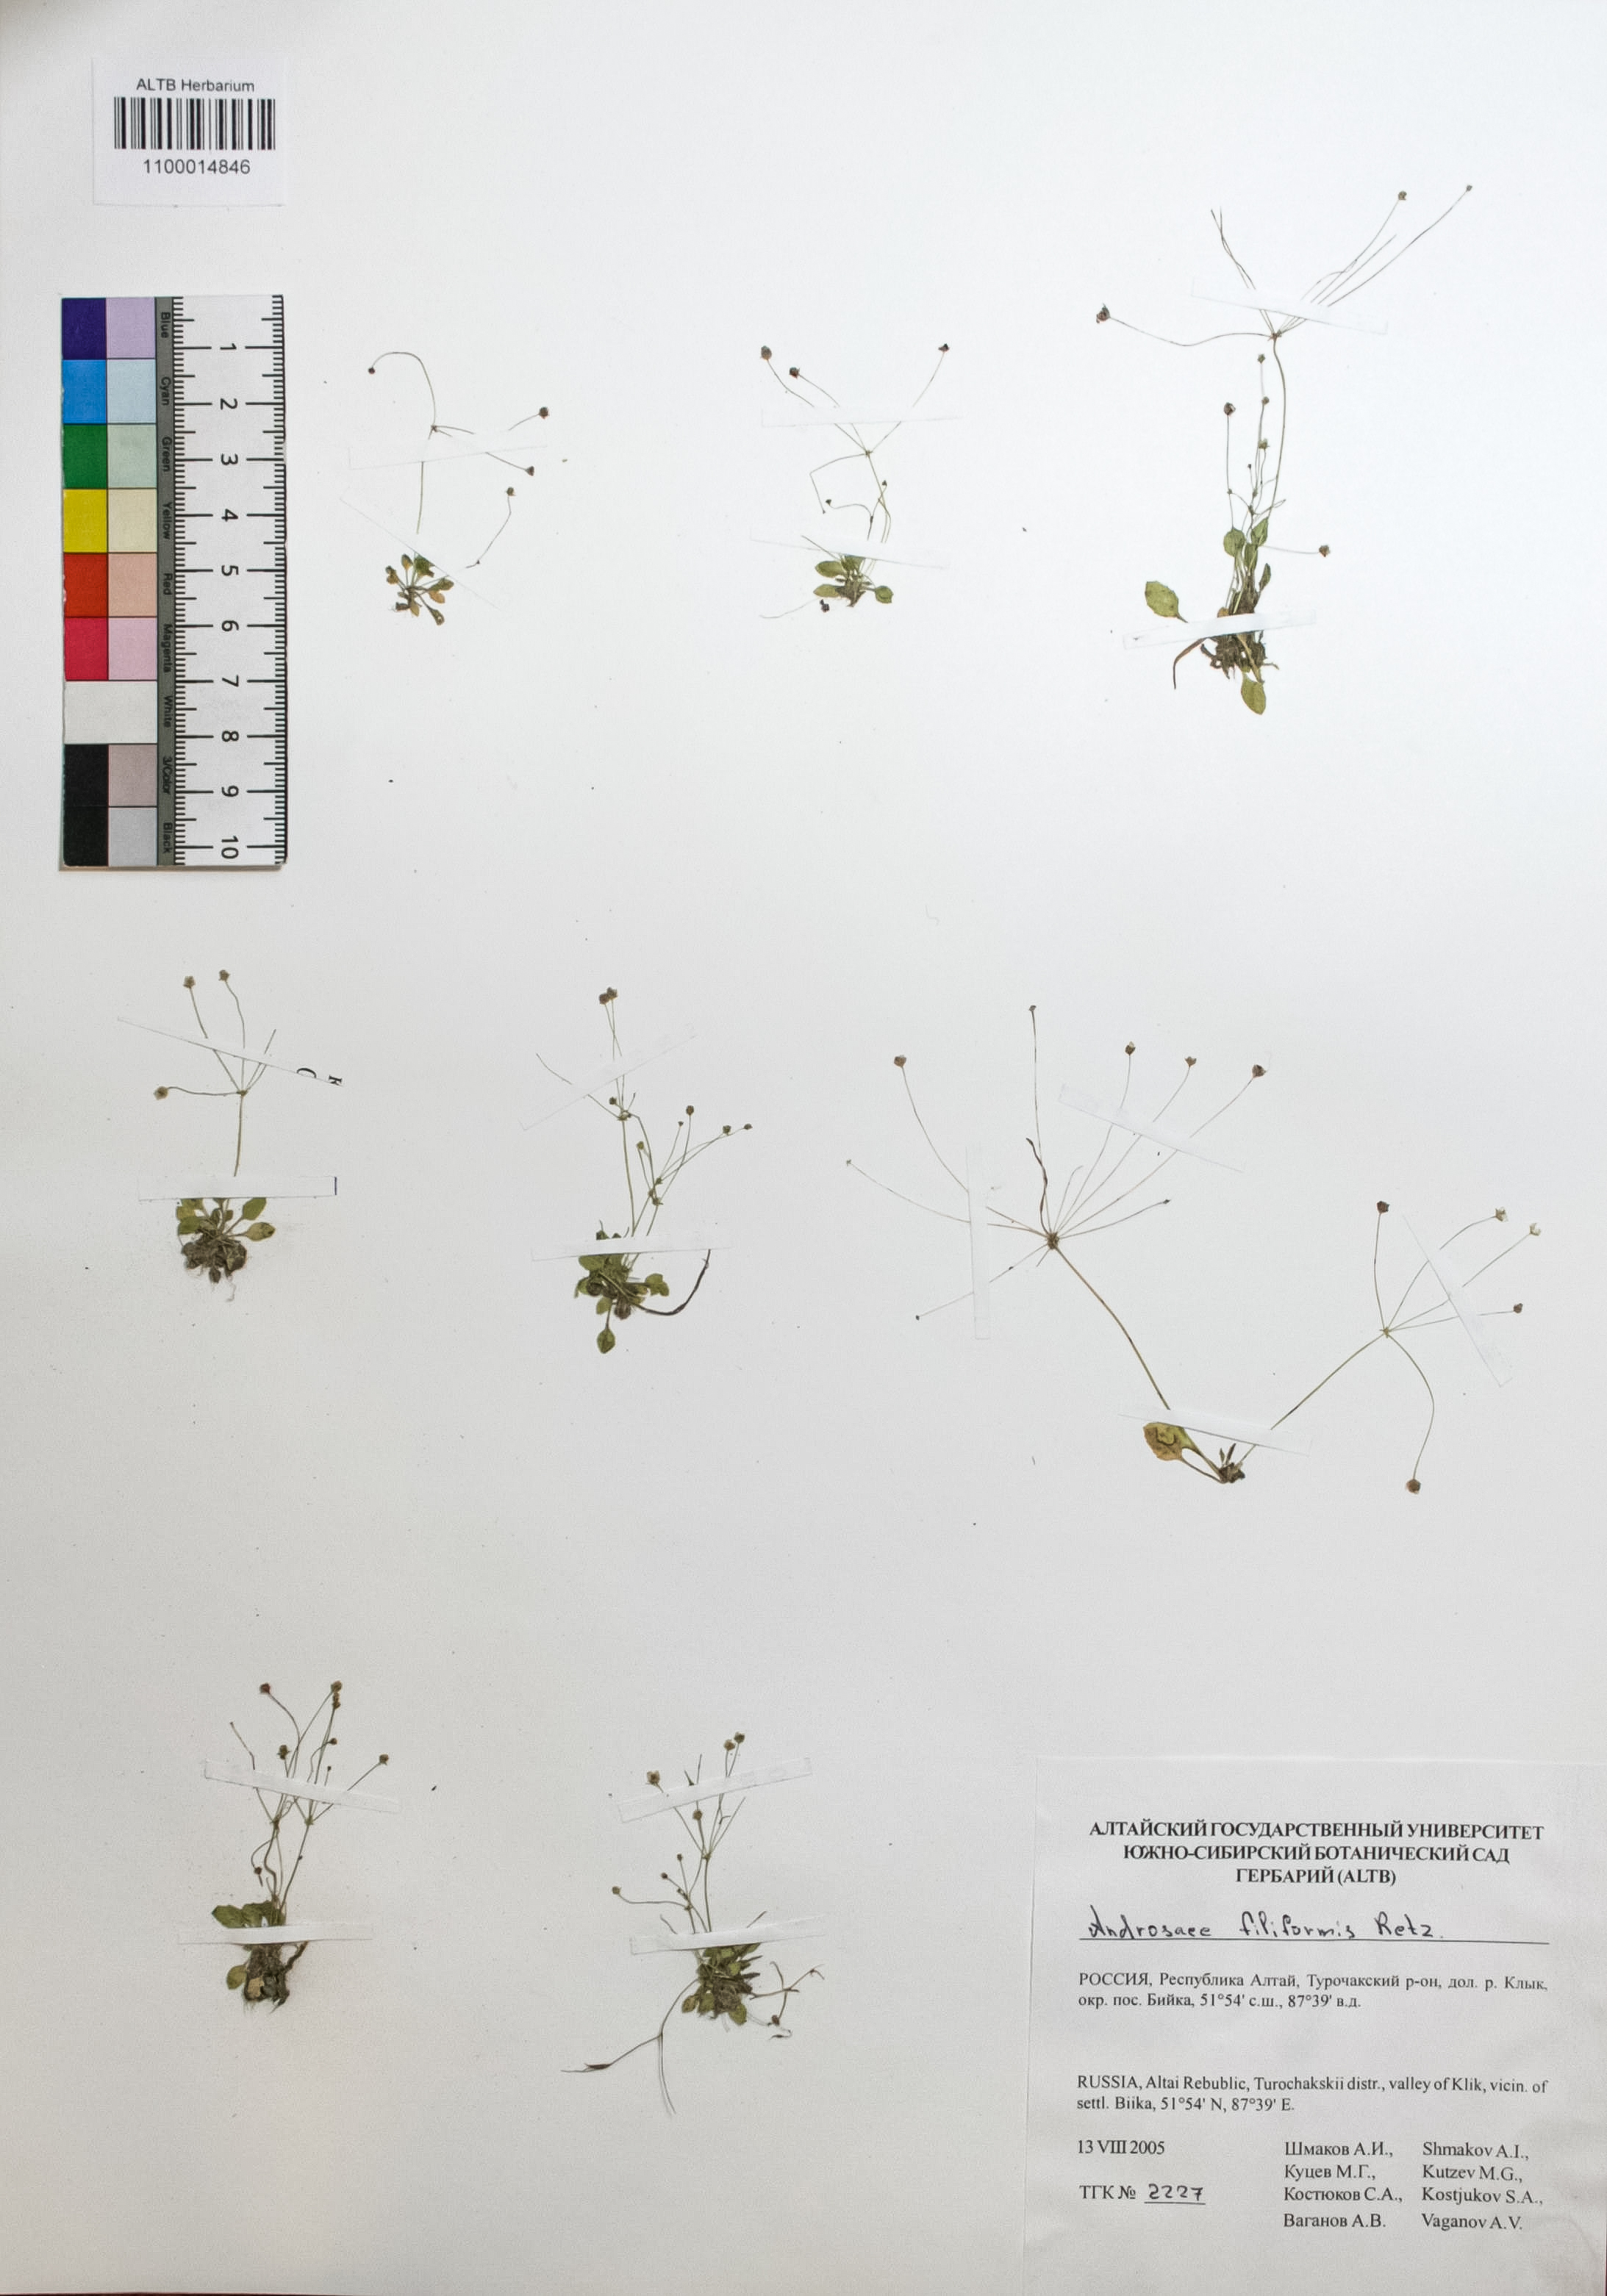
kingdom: Plantae
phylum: Tracheophyta
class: Magnoliopsida
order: Ericales
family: Primulaceae
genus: Androsace
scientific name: Androsace filiformis
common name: Filiform rock jasmine
